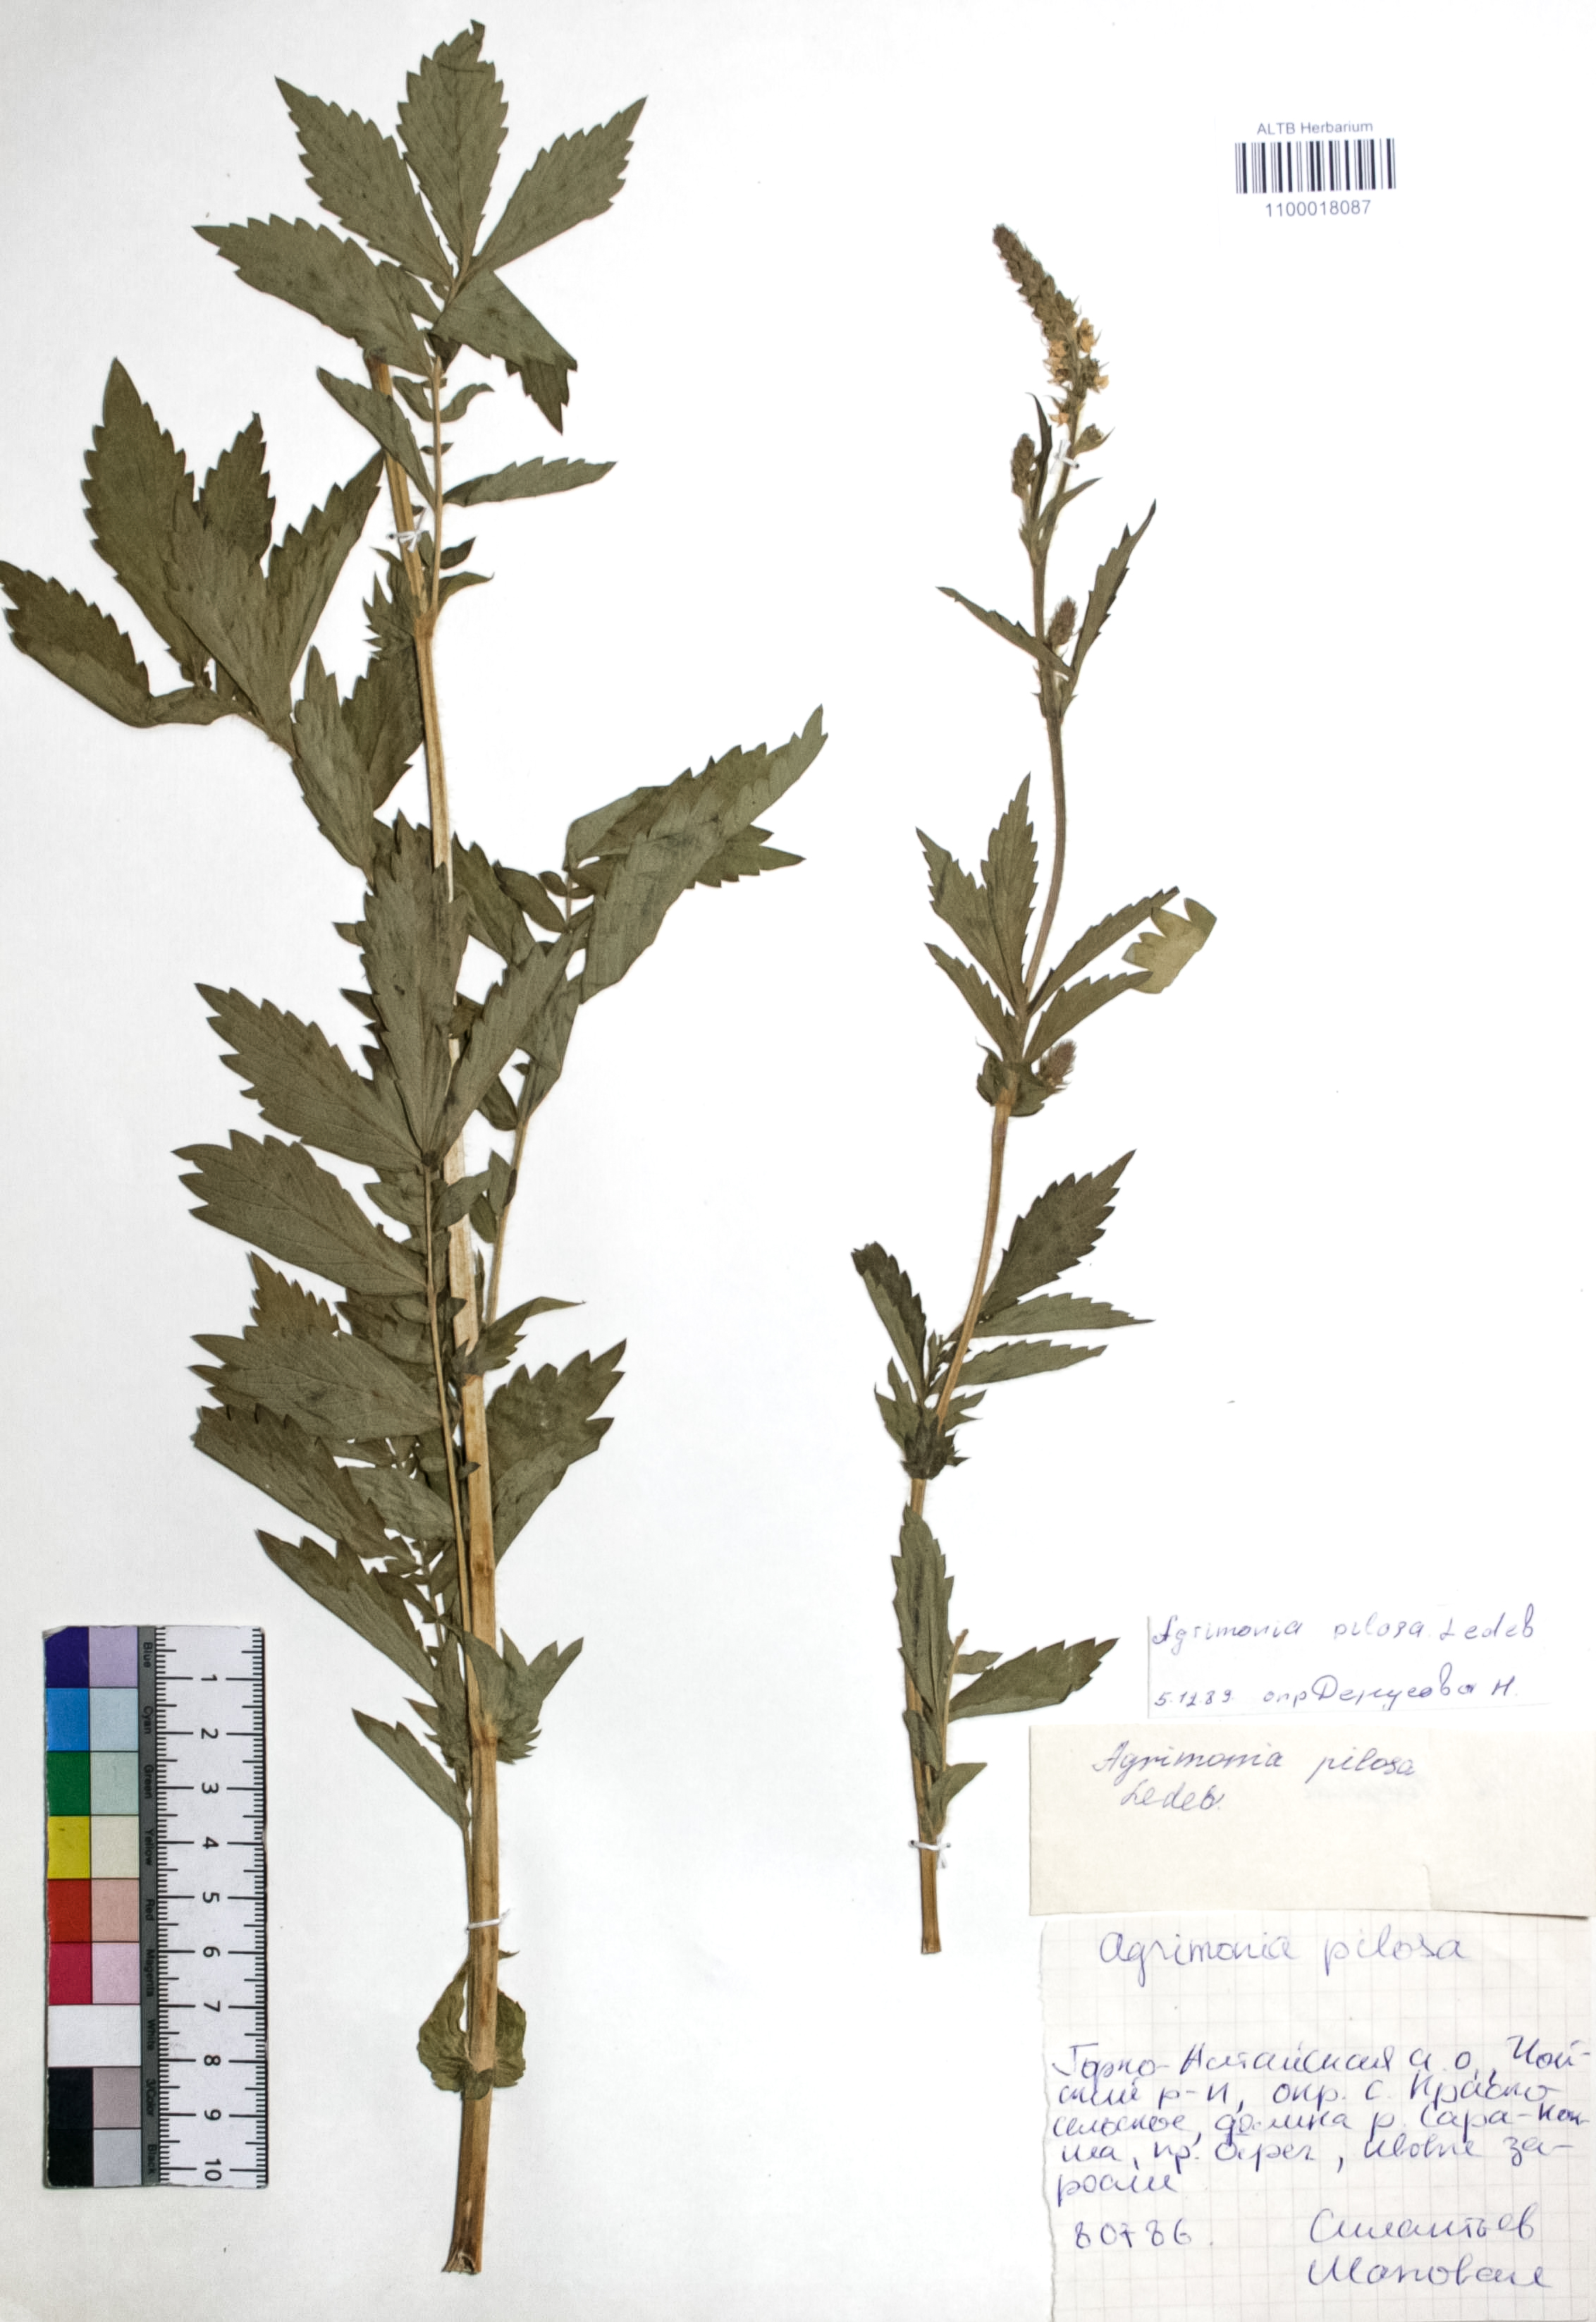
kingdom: Plantae
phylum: Tracheophyta
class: Magnoliopsida
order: Rosales
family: Rosaceae
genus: Agrimonia
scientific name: Agrimonia pilosa
